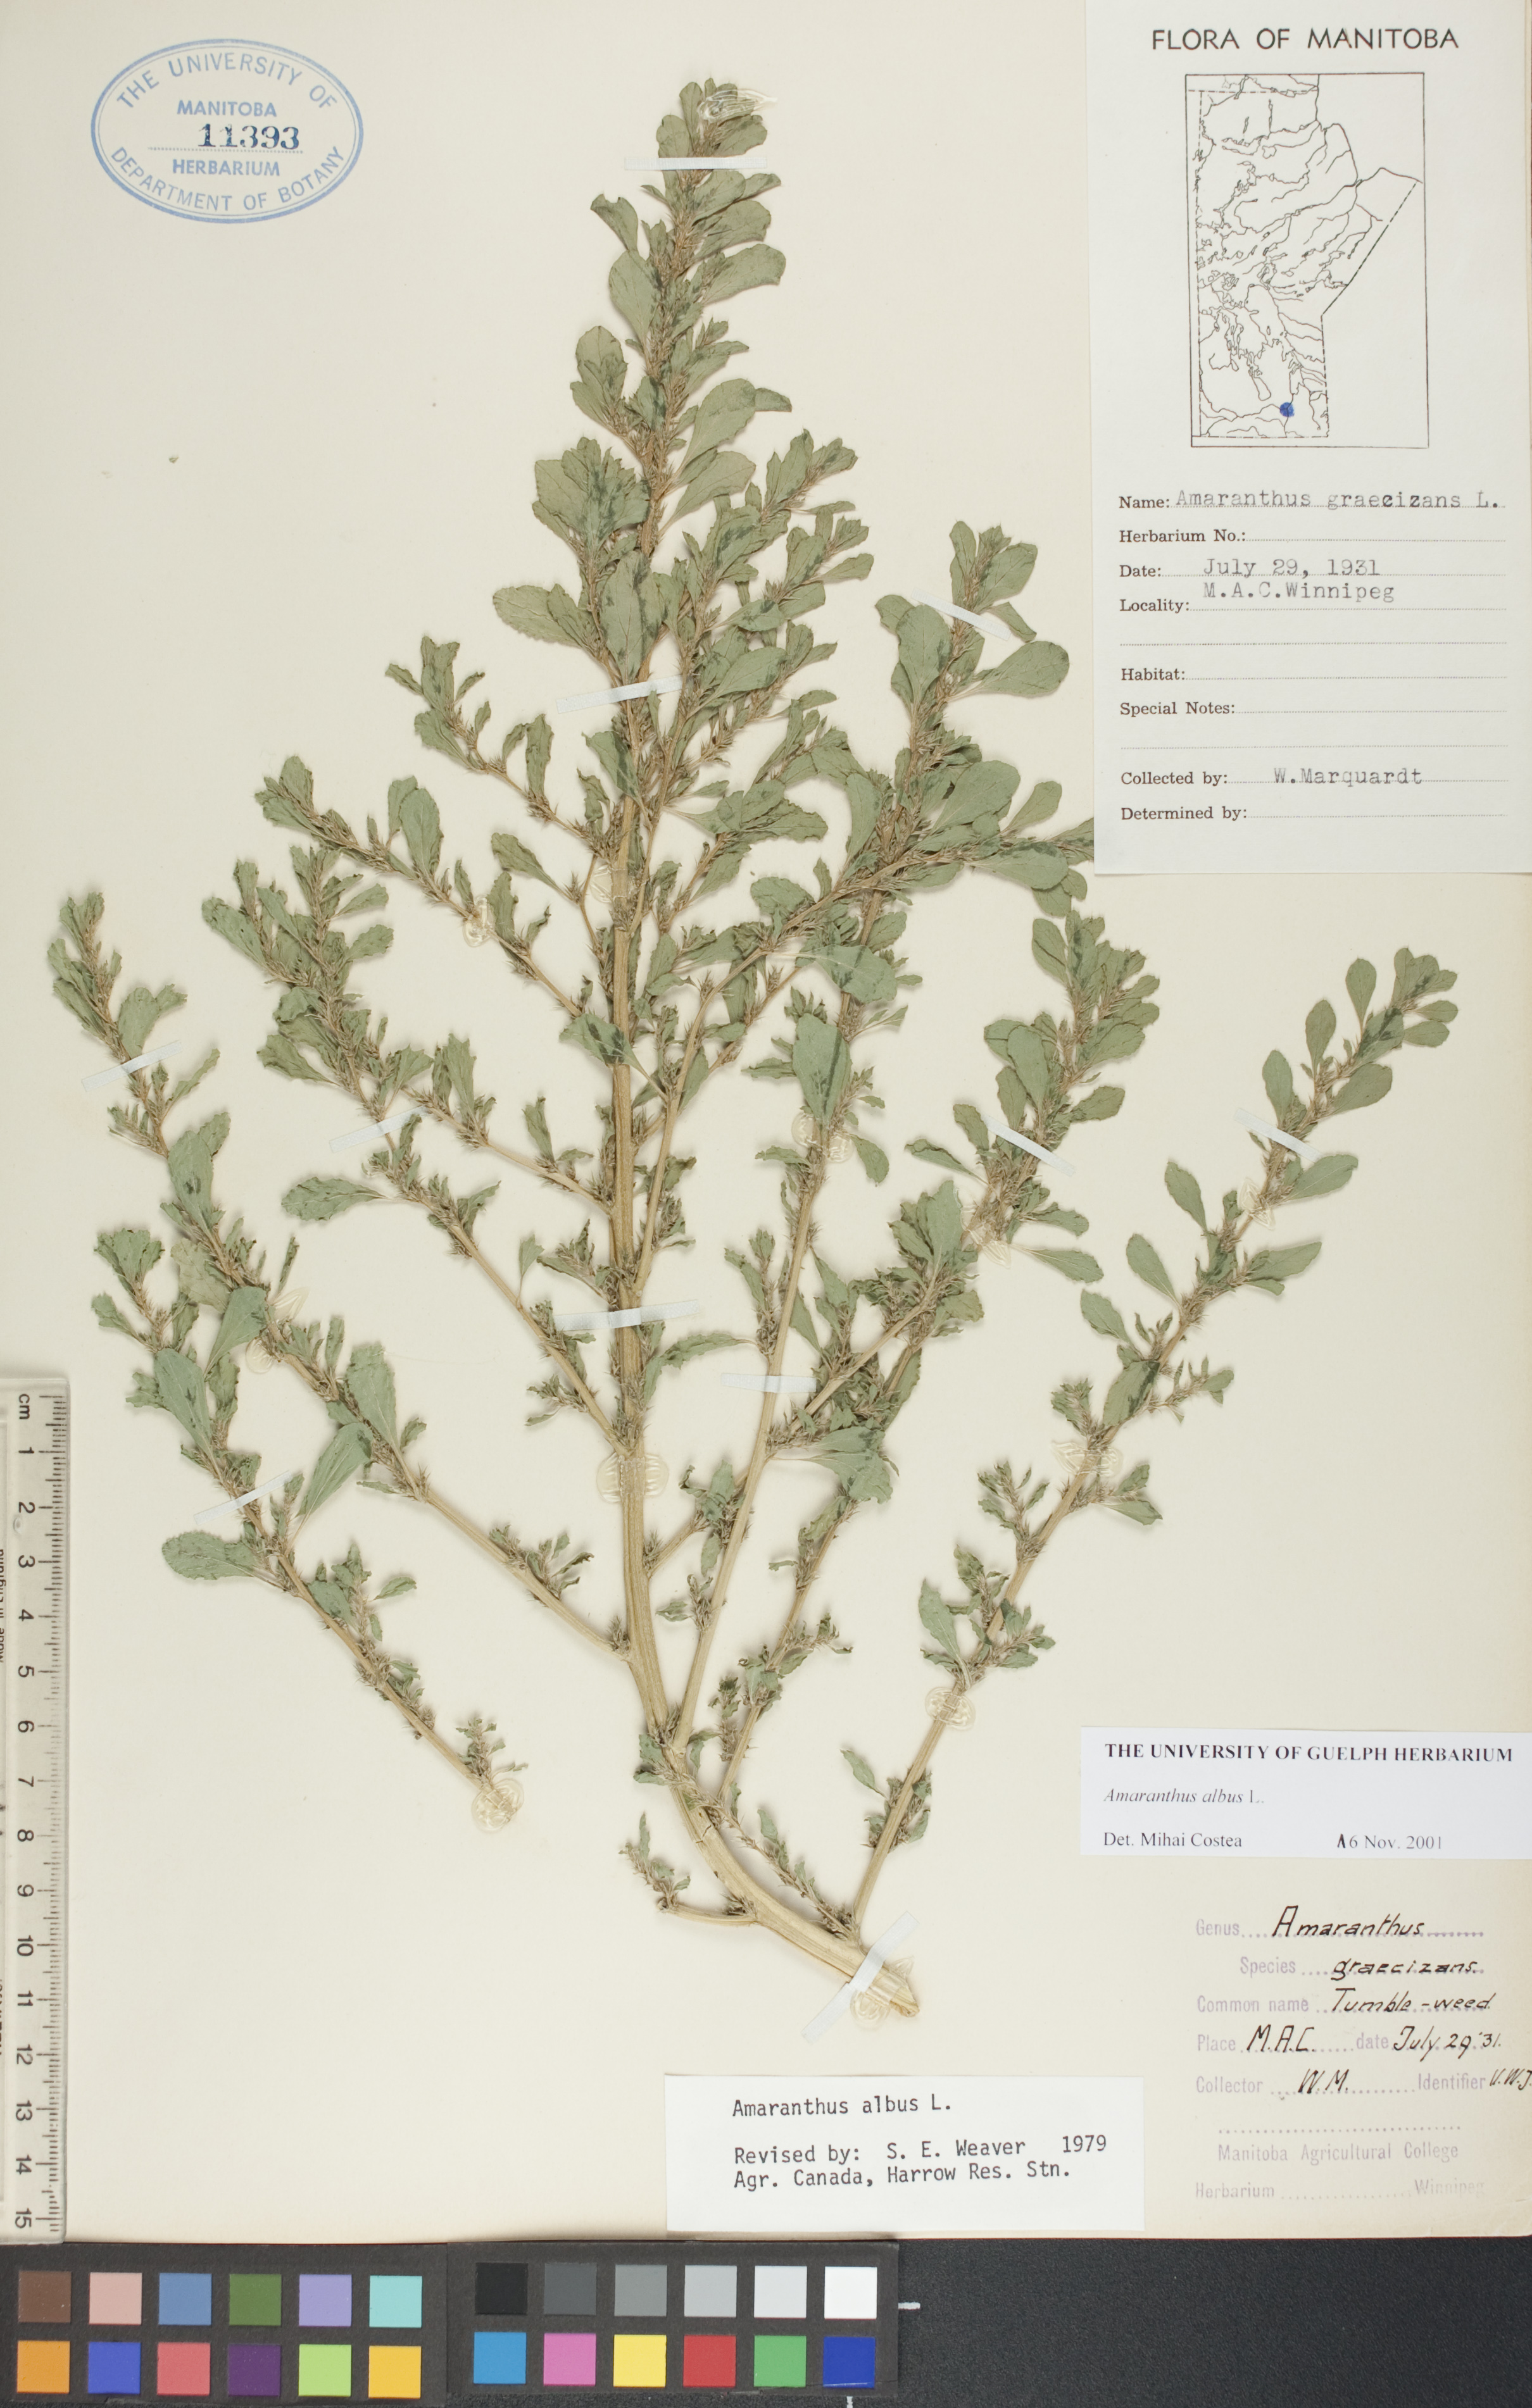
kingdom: Plantae
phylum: Tracheophyta
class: Magnoliopsida
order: Caryophyllales
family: Amaranthaceae
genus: Amaranthus
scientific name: Amaranthus albus
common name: White pigweed
